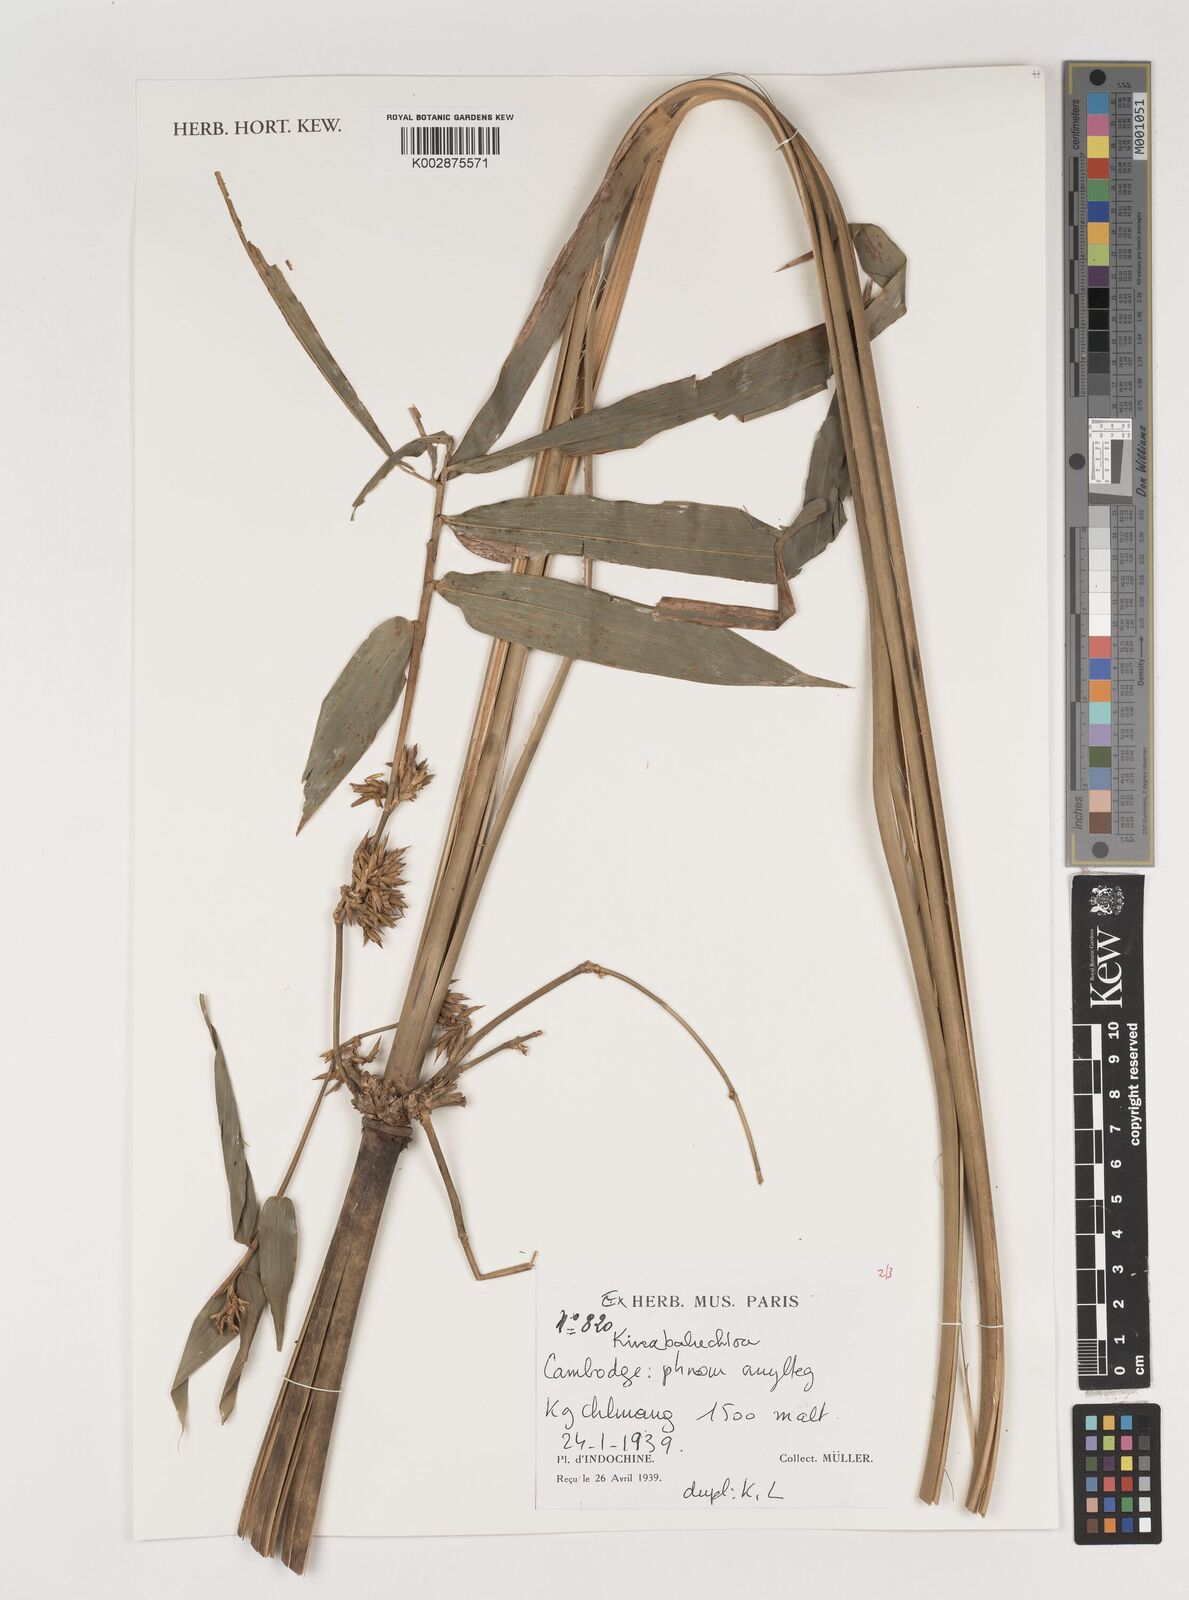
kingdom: Plantae
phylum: Tracheophyta
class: Liliopsida
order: Poales
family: Poaceae
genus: Kinabaluchloa
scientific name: Kinabaluchloa
